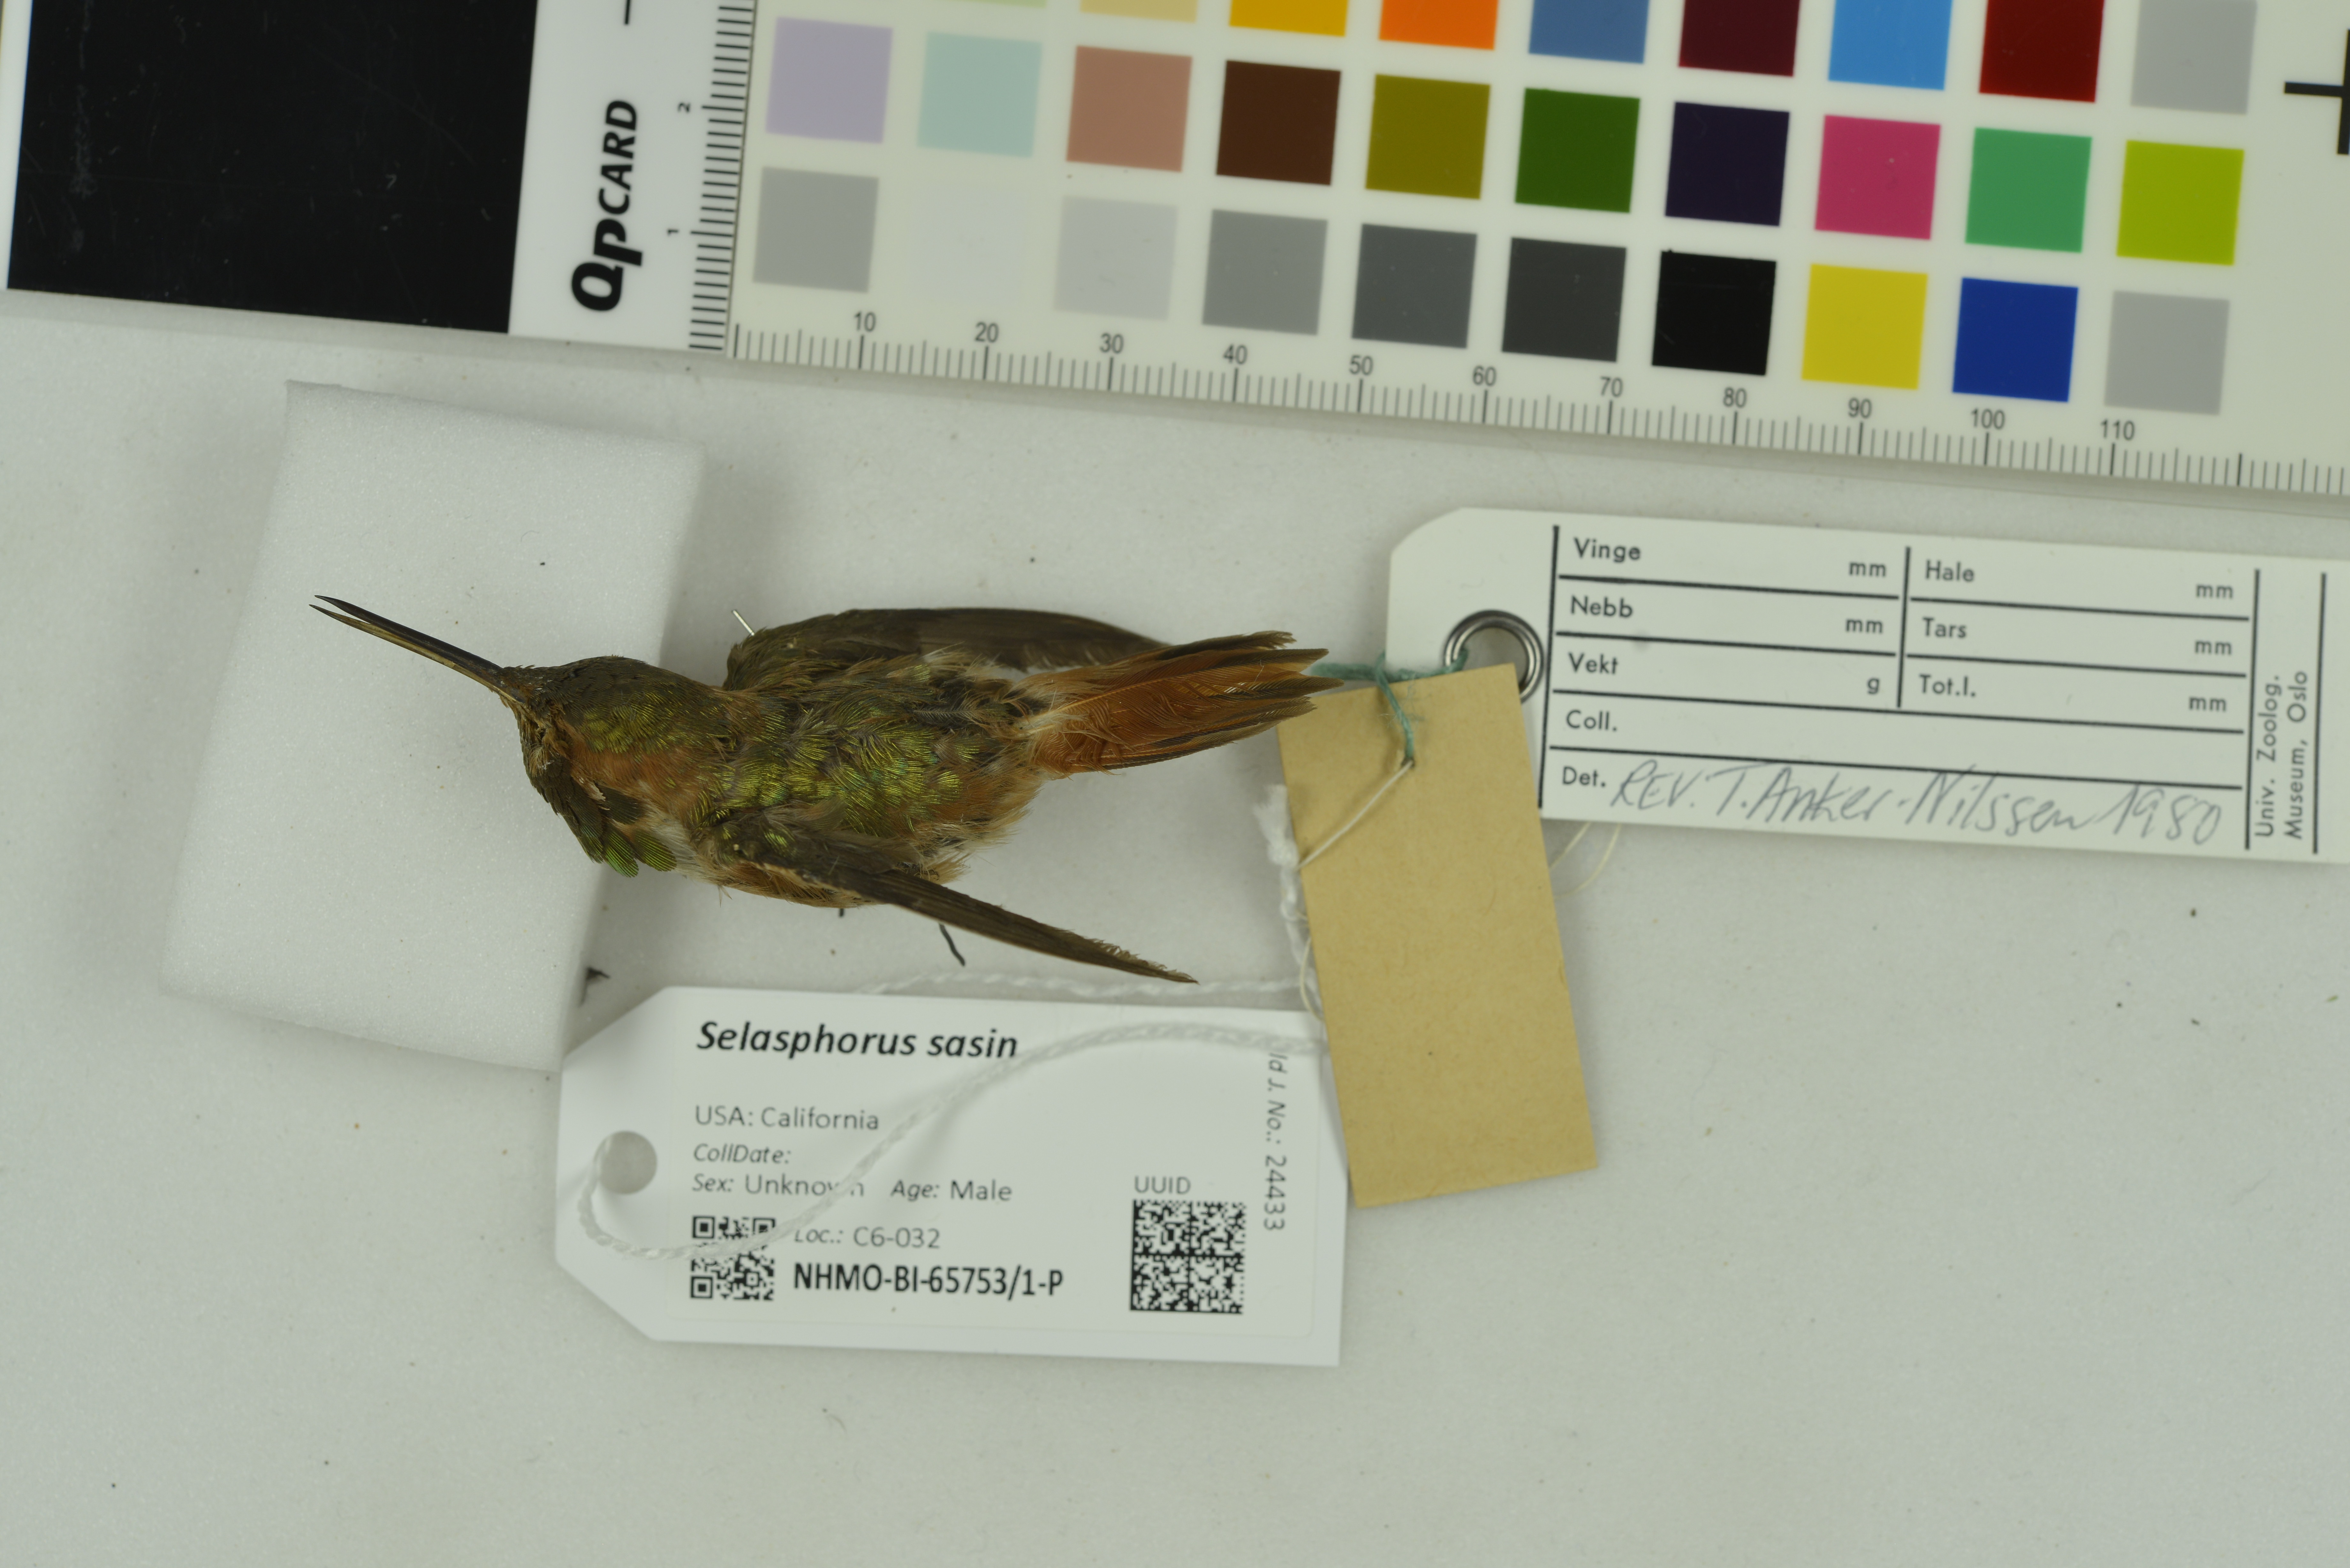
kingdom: Animalia
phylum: Chordata
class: Aves
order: Apodiformes
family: Trochilidae
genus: Selasphorus
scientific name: Selasphorus sasin
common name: Allen's hummingbird
